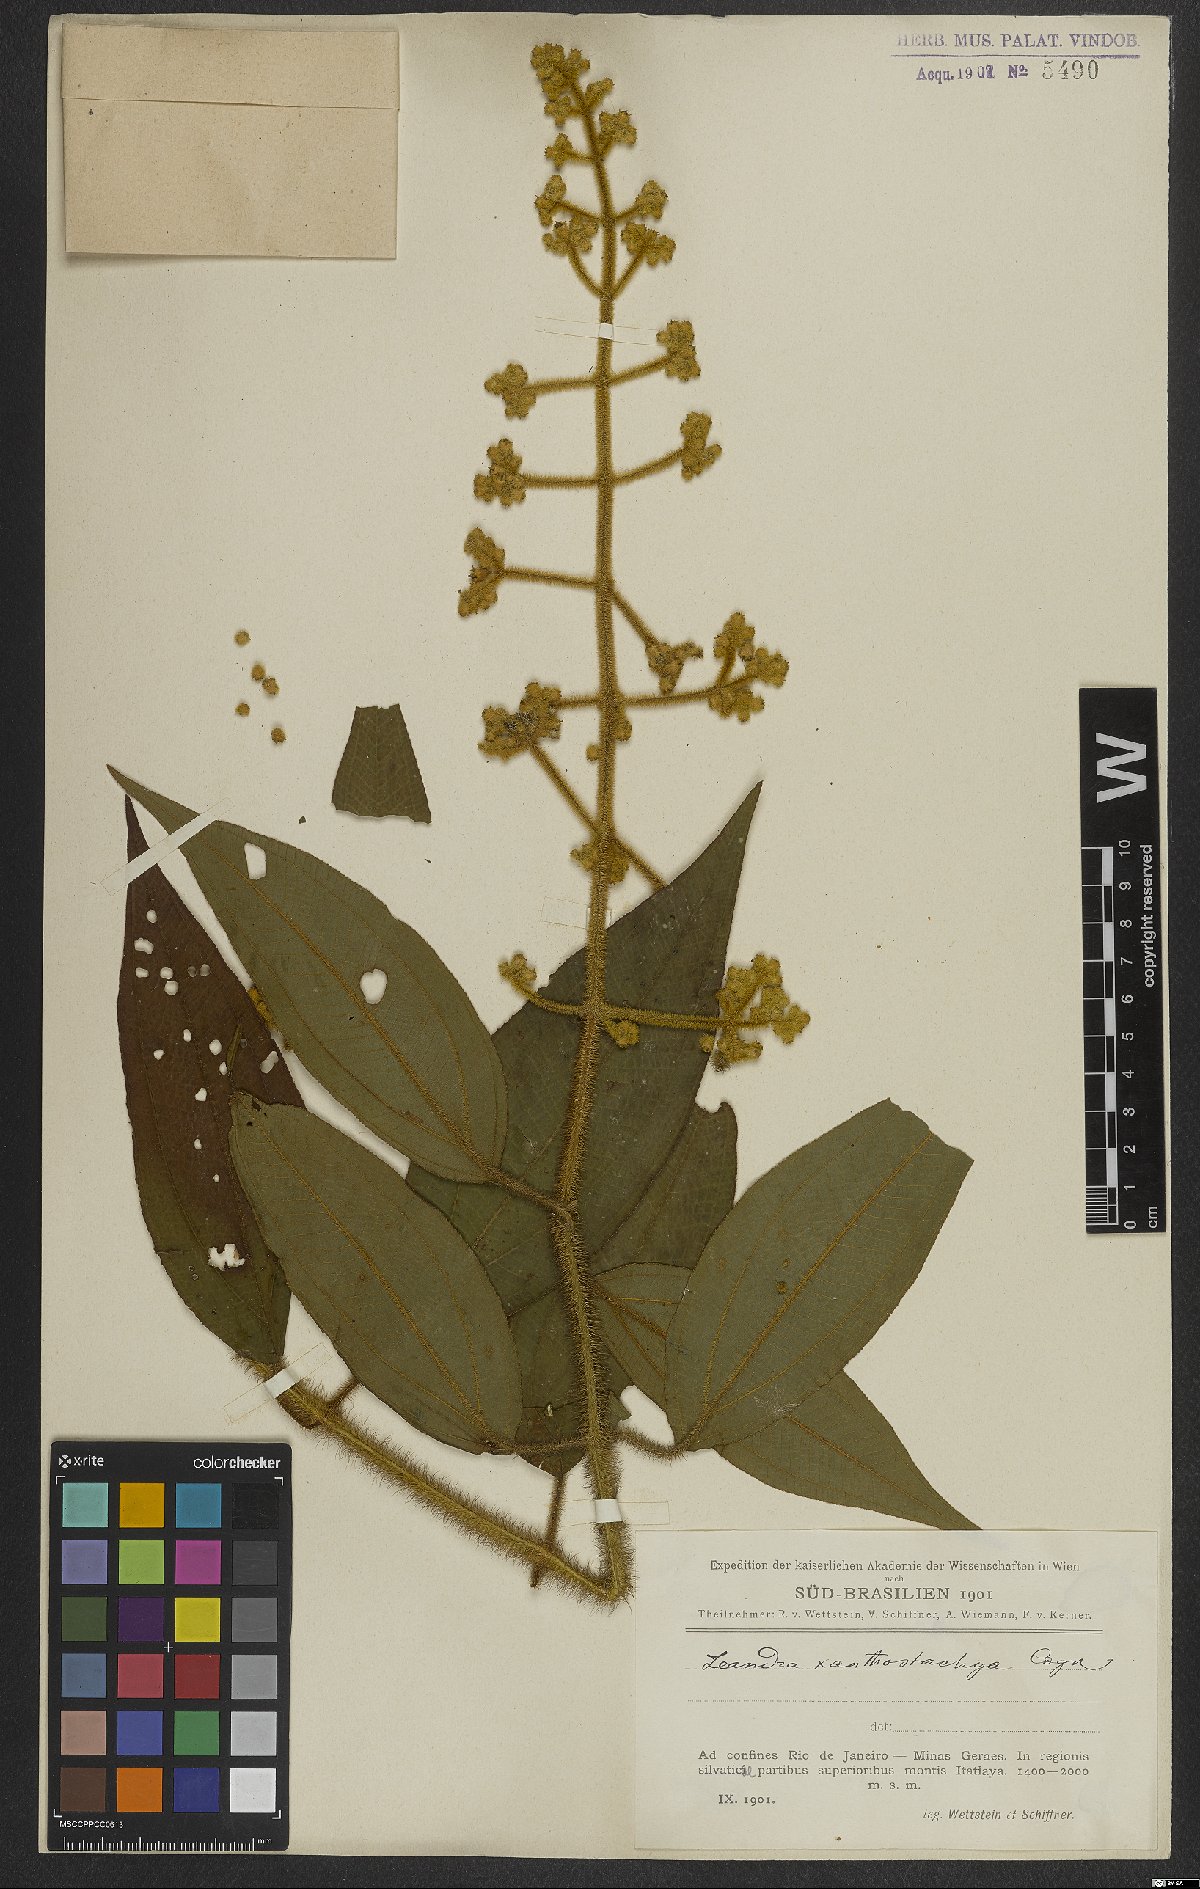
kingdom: Plantae
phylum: Tracheophyta
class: Magnoliopsida
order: Myrtales
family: Melastomataceae
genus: Miconia
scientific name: Miconia xanthostachya
